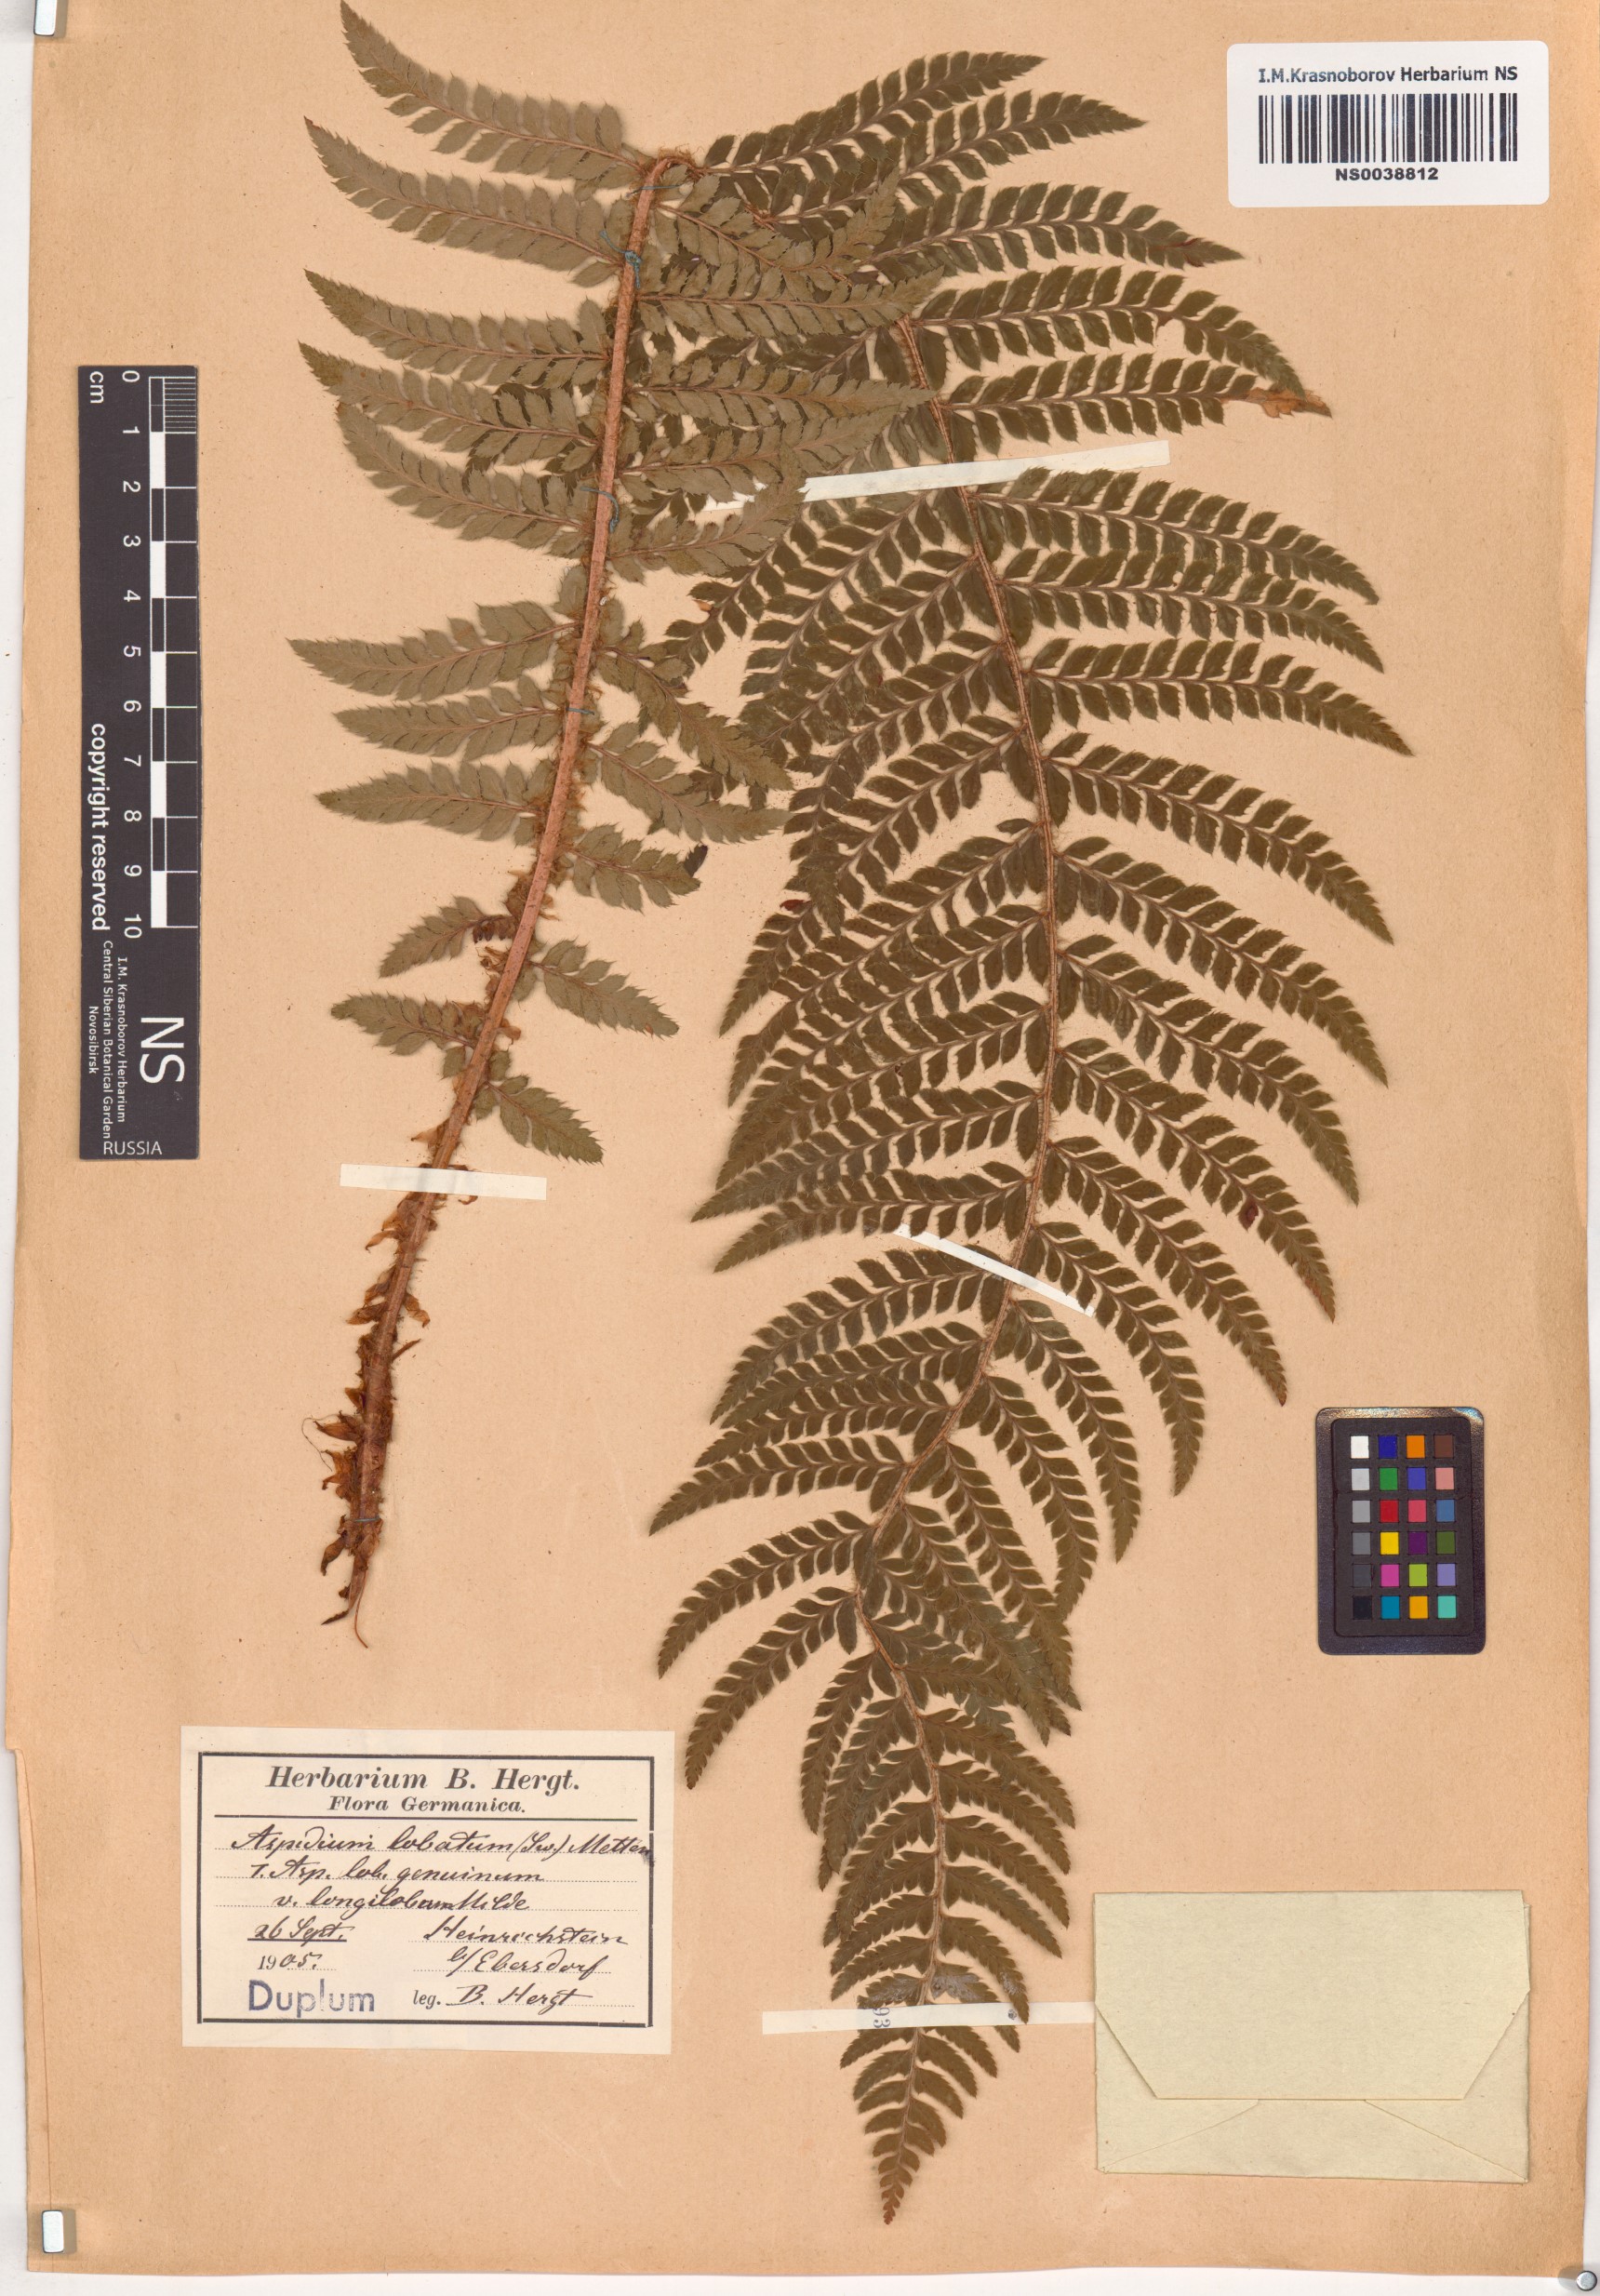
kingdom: Plantae
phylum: Tracheophyta
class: Polypodiopsida
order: Polypodiales
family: Dryopteridaceae
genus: Polystichum
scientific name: Polystichum aculeatum
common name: Hard shield-fern
